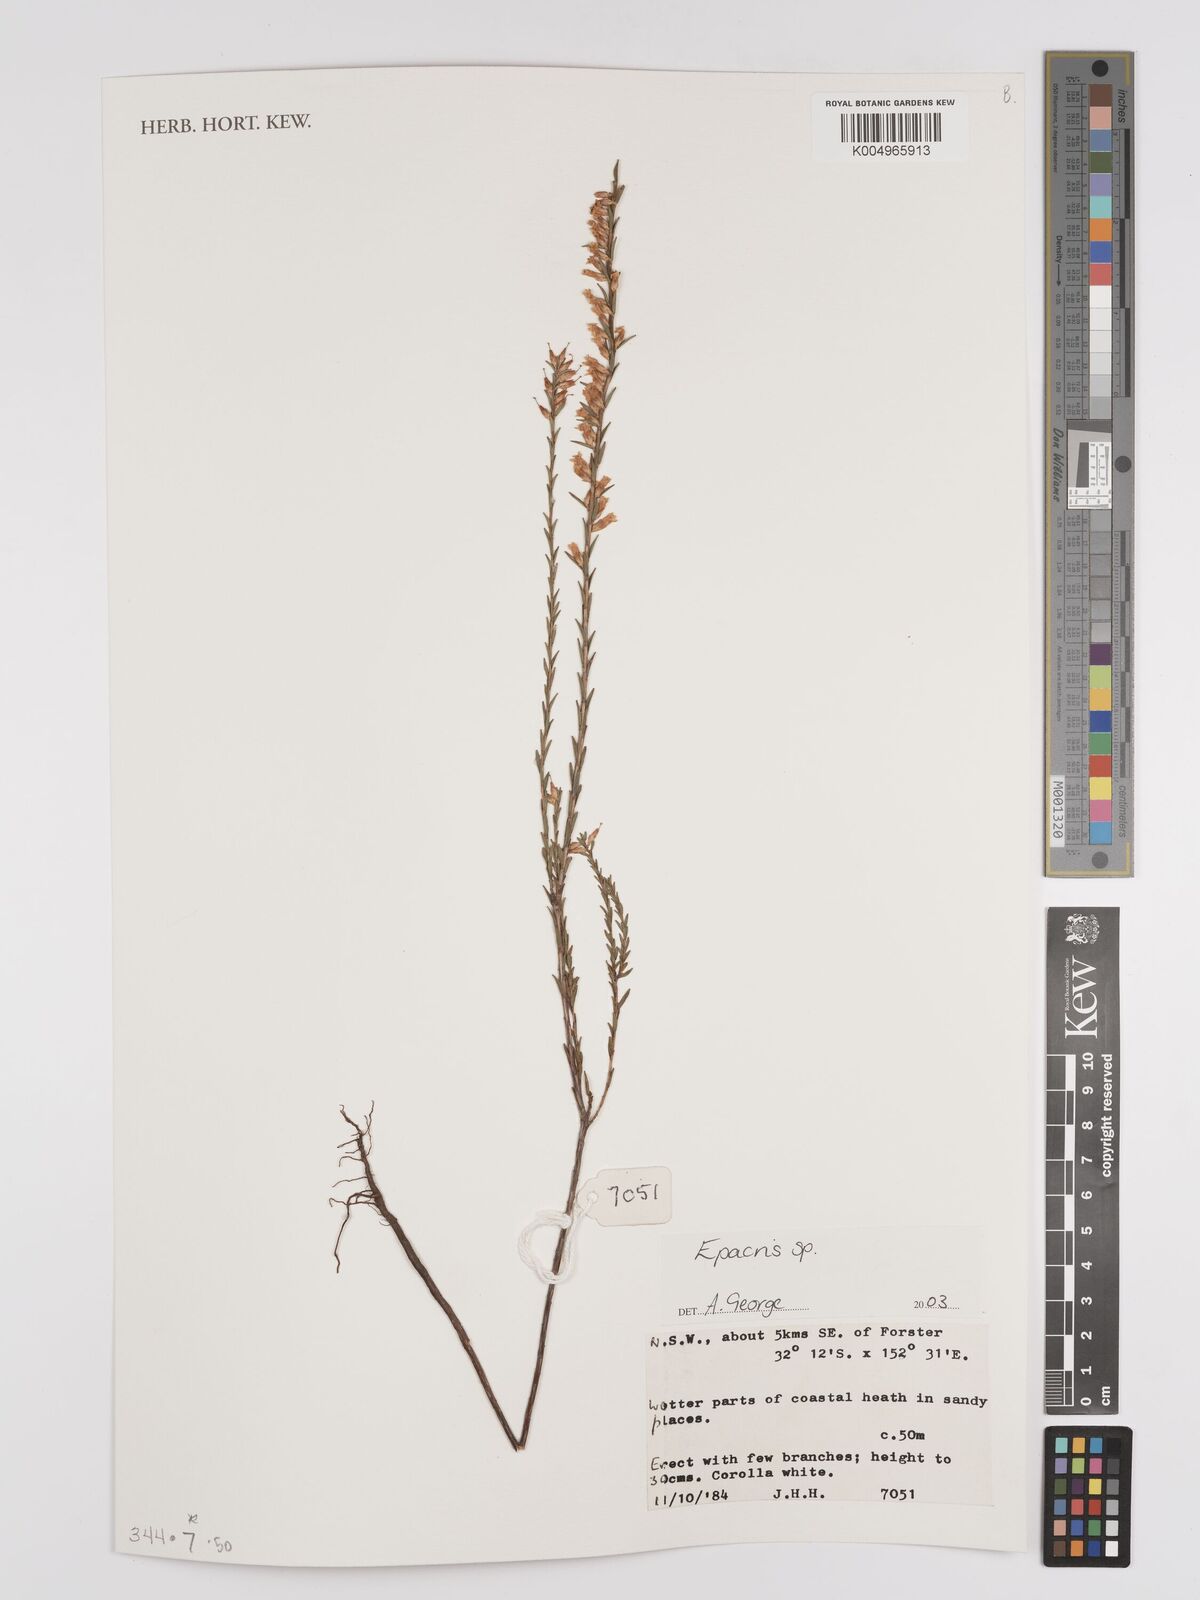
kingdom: Plantae
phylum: Tracheophyta
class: Magnoliopsida
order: Ericales
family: Ericaceae
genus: Epacris
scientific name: Epacris
